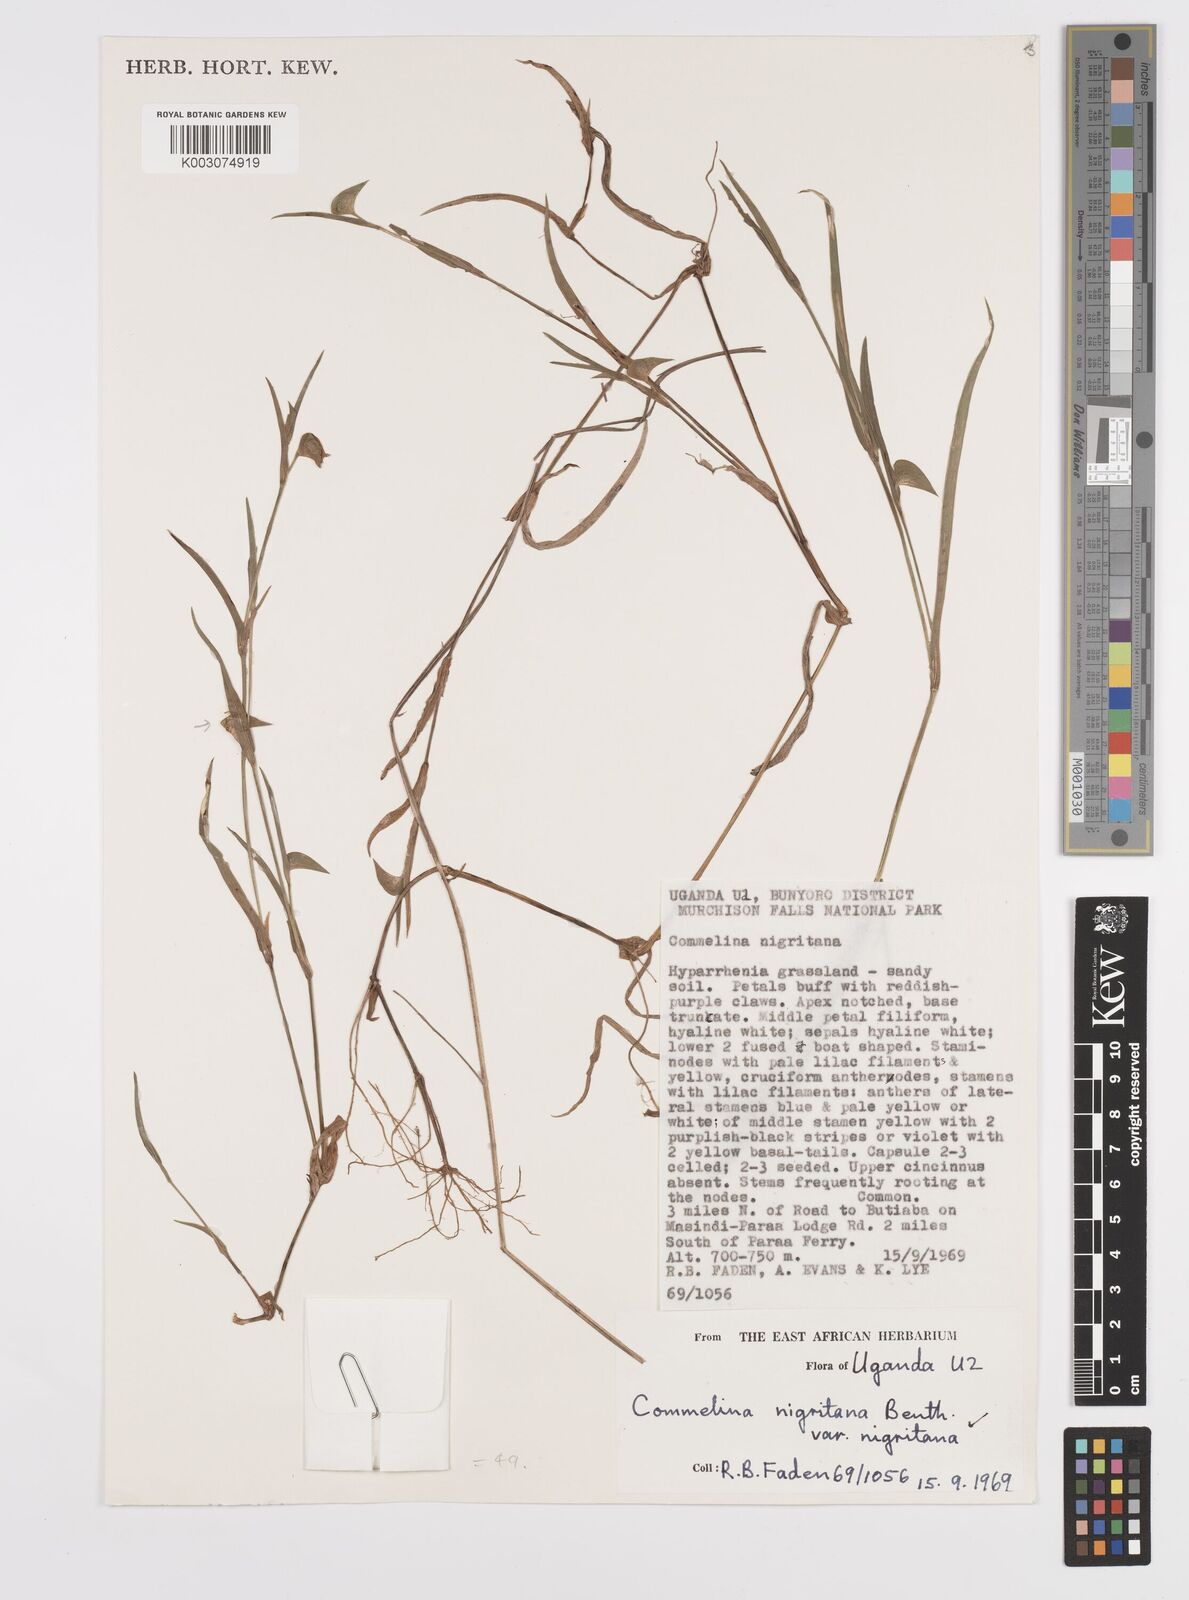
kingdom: Plantae
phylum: Tracheophyta
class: Liliopsida
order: Commelinales
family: Commelinaceae
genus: Commelina
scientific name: Commelina nigritana
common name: African dayflower
